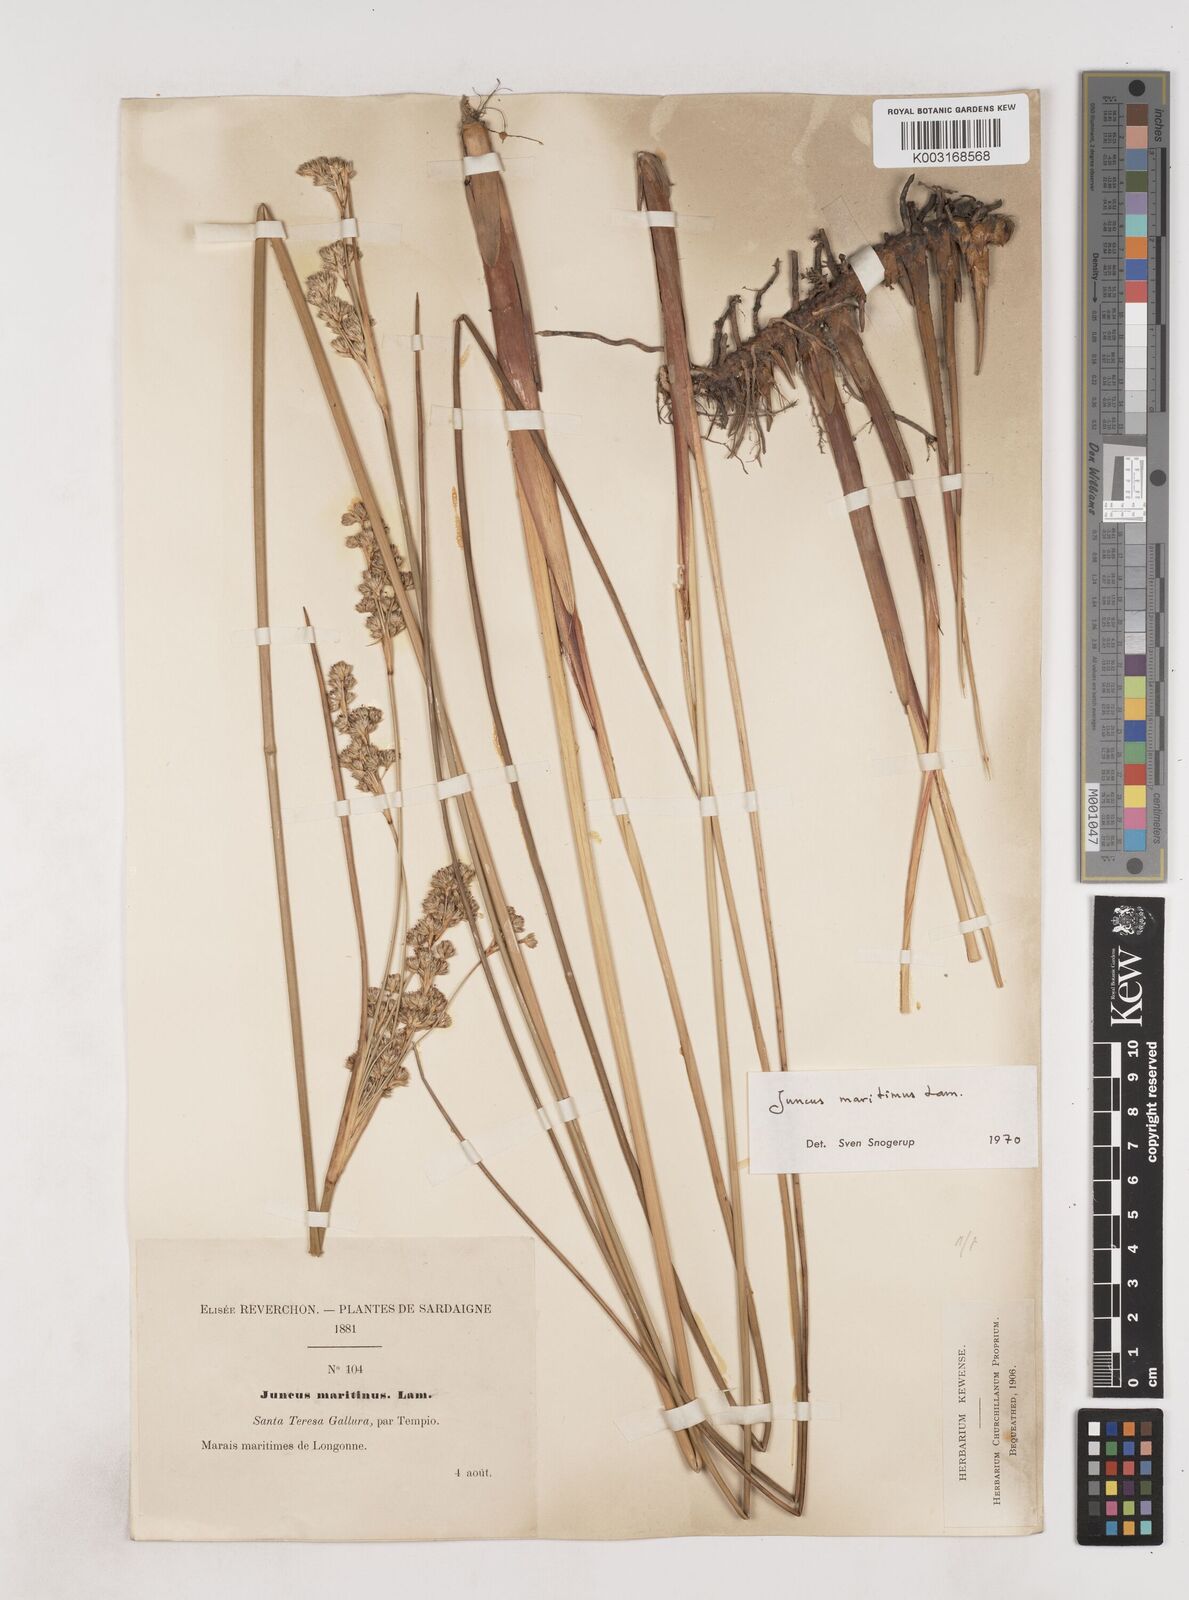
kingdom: Plantae
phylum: Tracheophyta
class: Liliopsida
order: Poales
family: Juncaceae
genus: Juncus
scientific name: Juncus maritimus
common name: Sea rush
